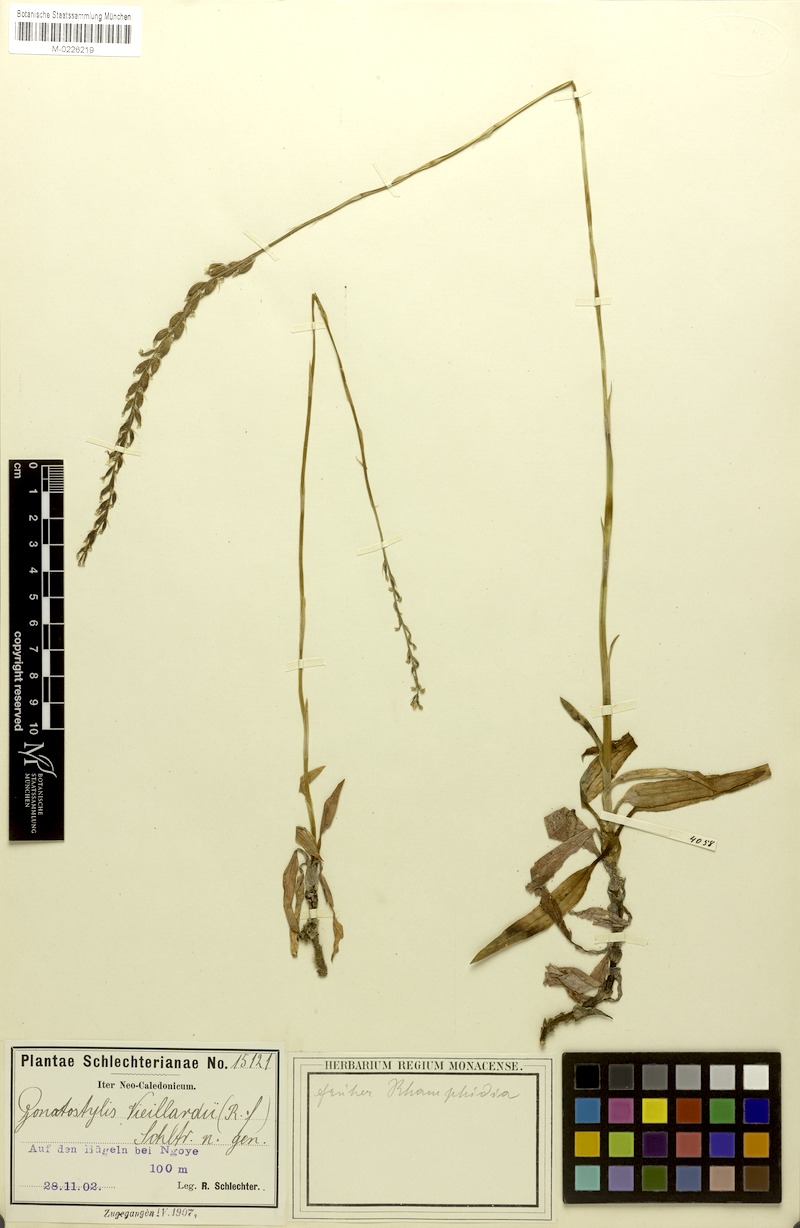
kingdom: Plantae
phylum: Tracheophyta
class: Liliopsida
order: Asparagales
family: Orchidaceae
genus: Gonatostylis
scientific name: Gonatostylis vieillardii
